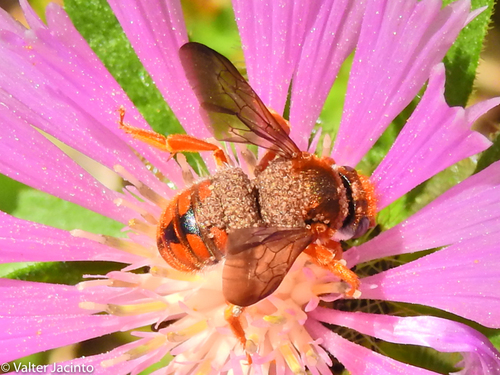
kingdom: Animalia
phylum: Arthropoda
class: Insecta
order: Hymenoptera
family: Megachilidae
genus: Rhodanthidium
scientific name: Rhodanthidium sticticum
